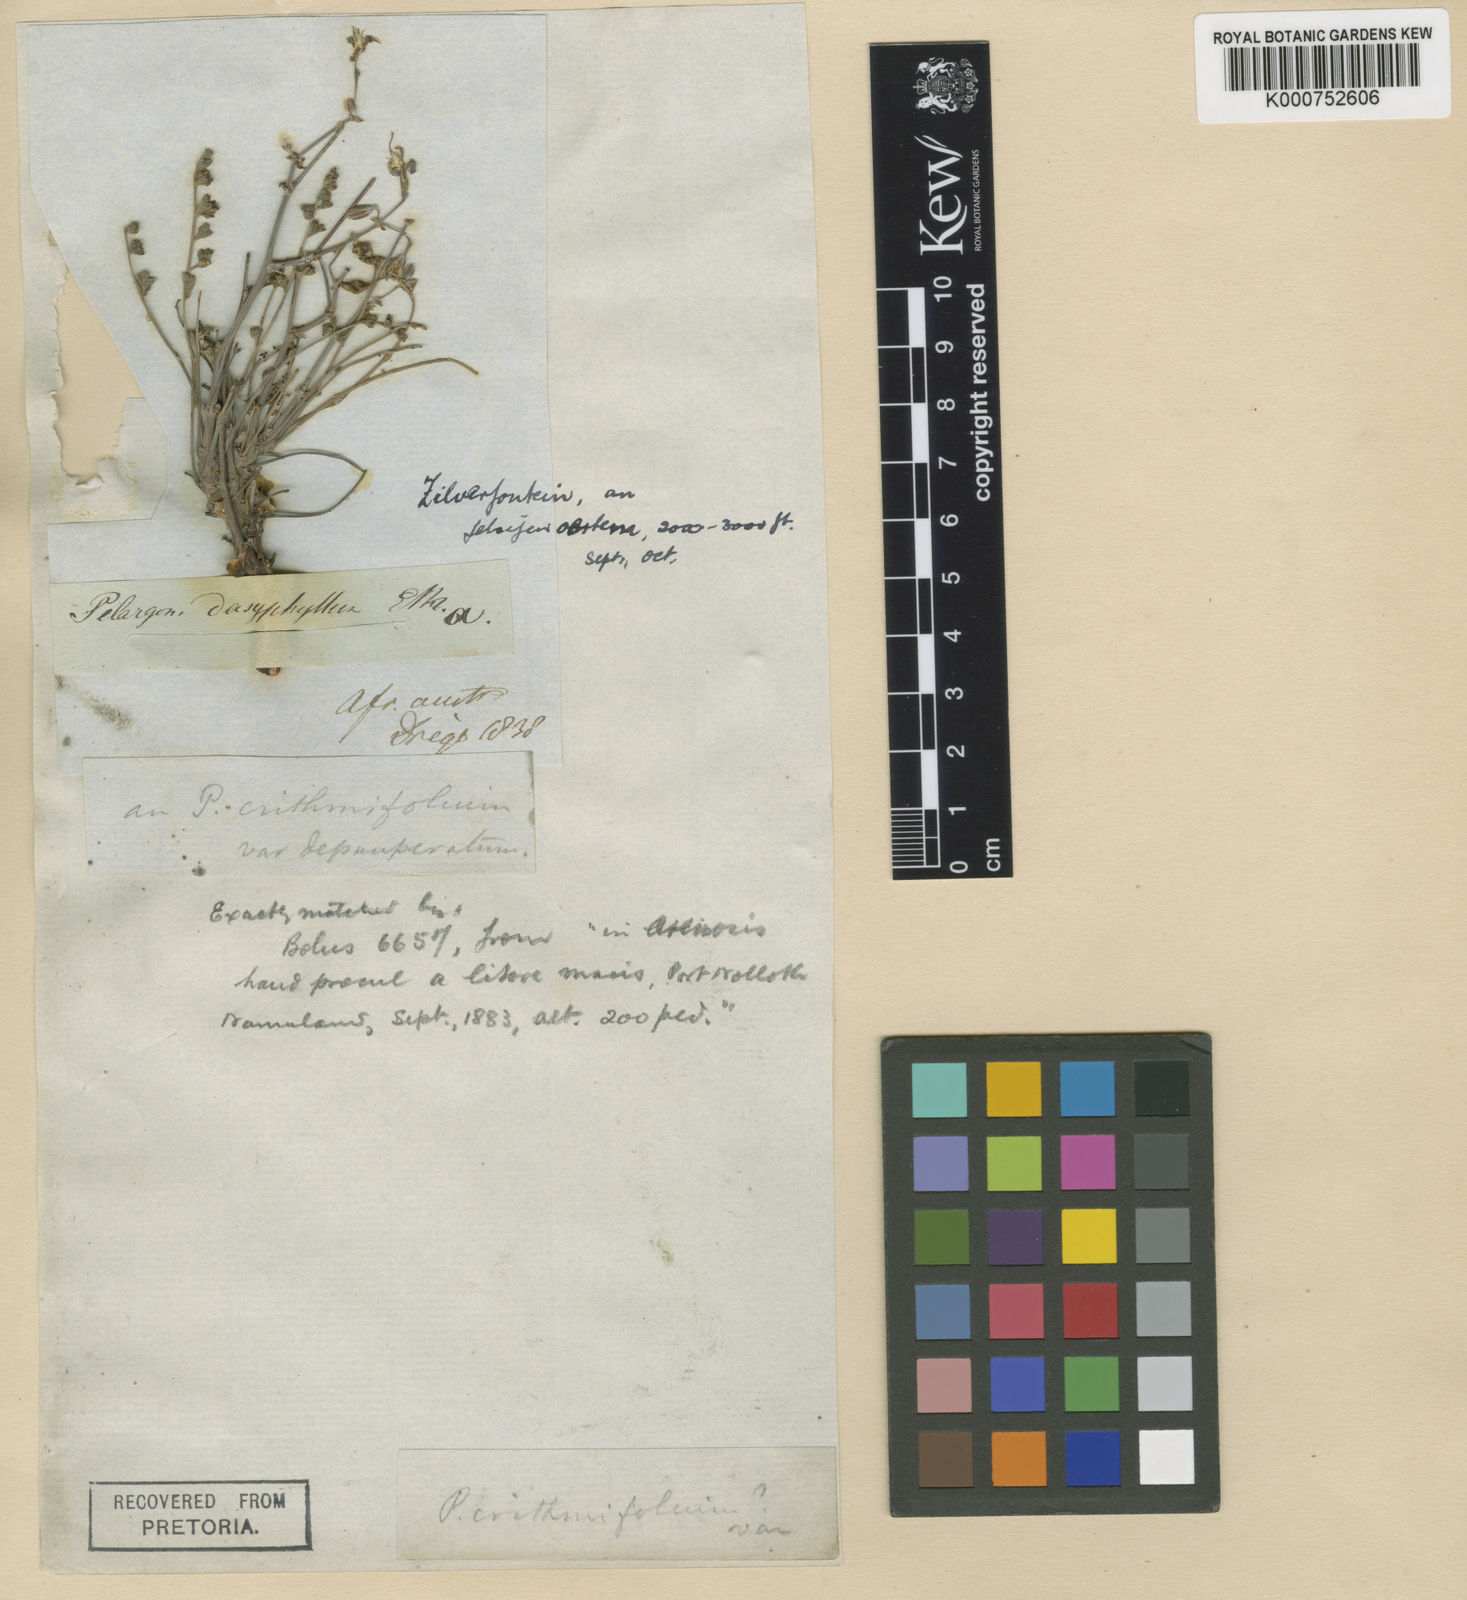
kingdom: Plantae
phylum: Tracheophyta
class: Magnoliopsida
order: Geraniales
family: Geraniaceae
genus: Pelargonium
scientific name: Pelargonium
